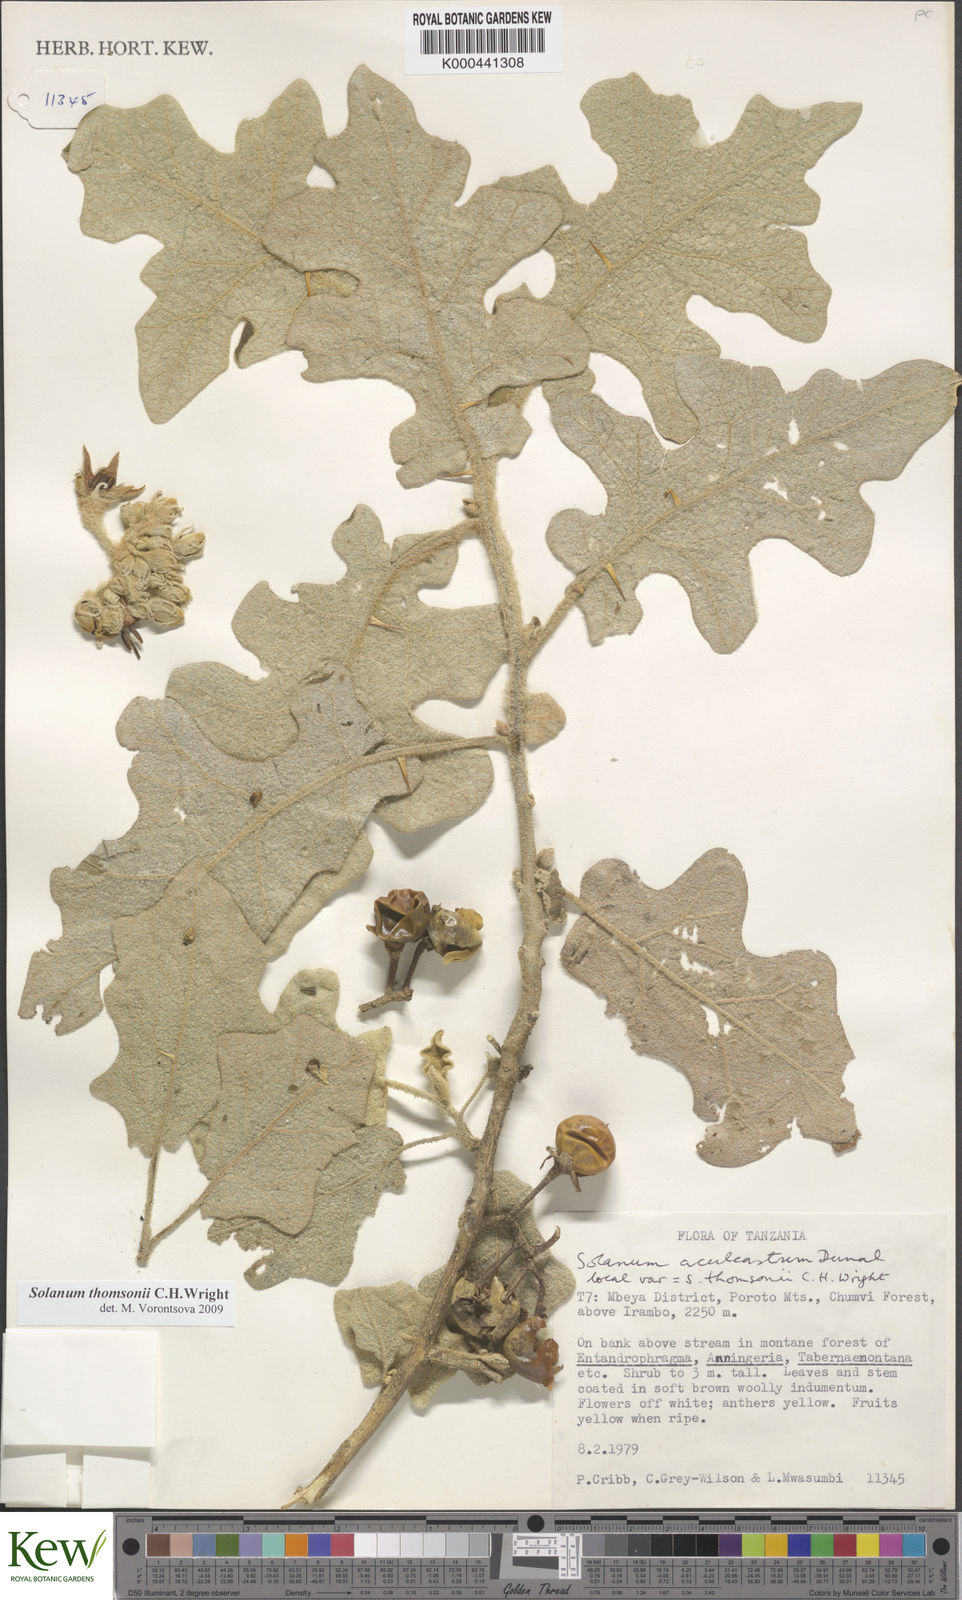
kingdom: Plantae
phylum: Tracheophyta
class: Magnoliopsida
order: Solanales
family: Solanaceae
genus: Solanum
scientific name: Solanum aculeastrum
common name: Goat bitter-apple
